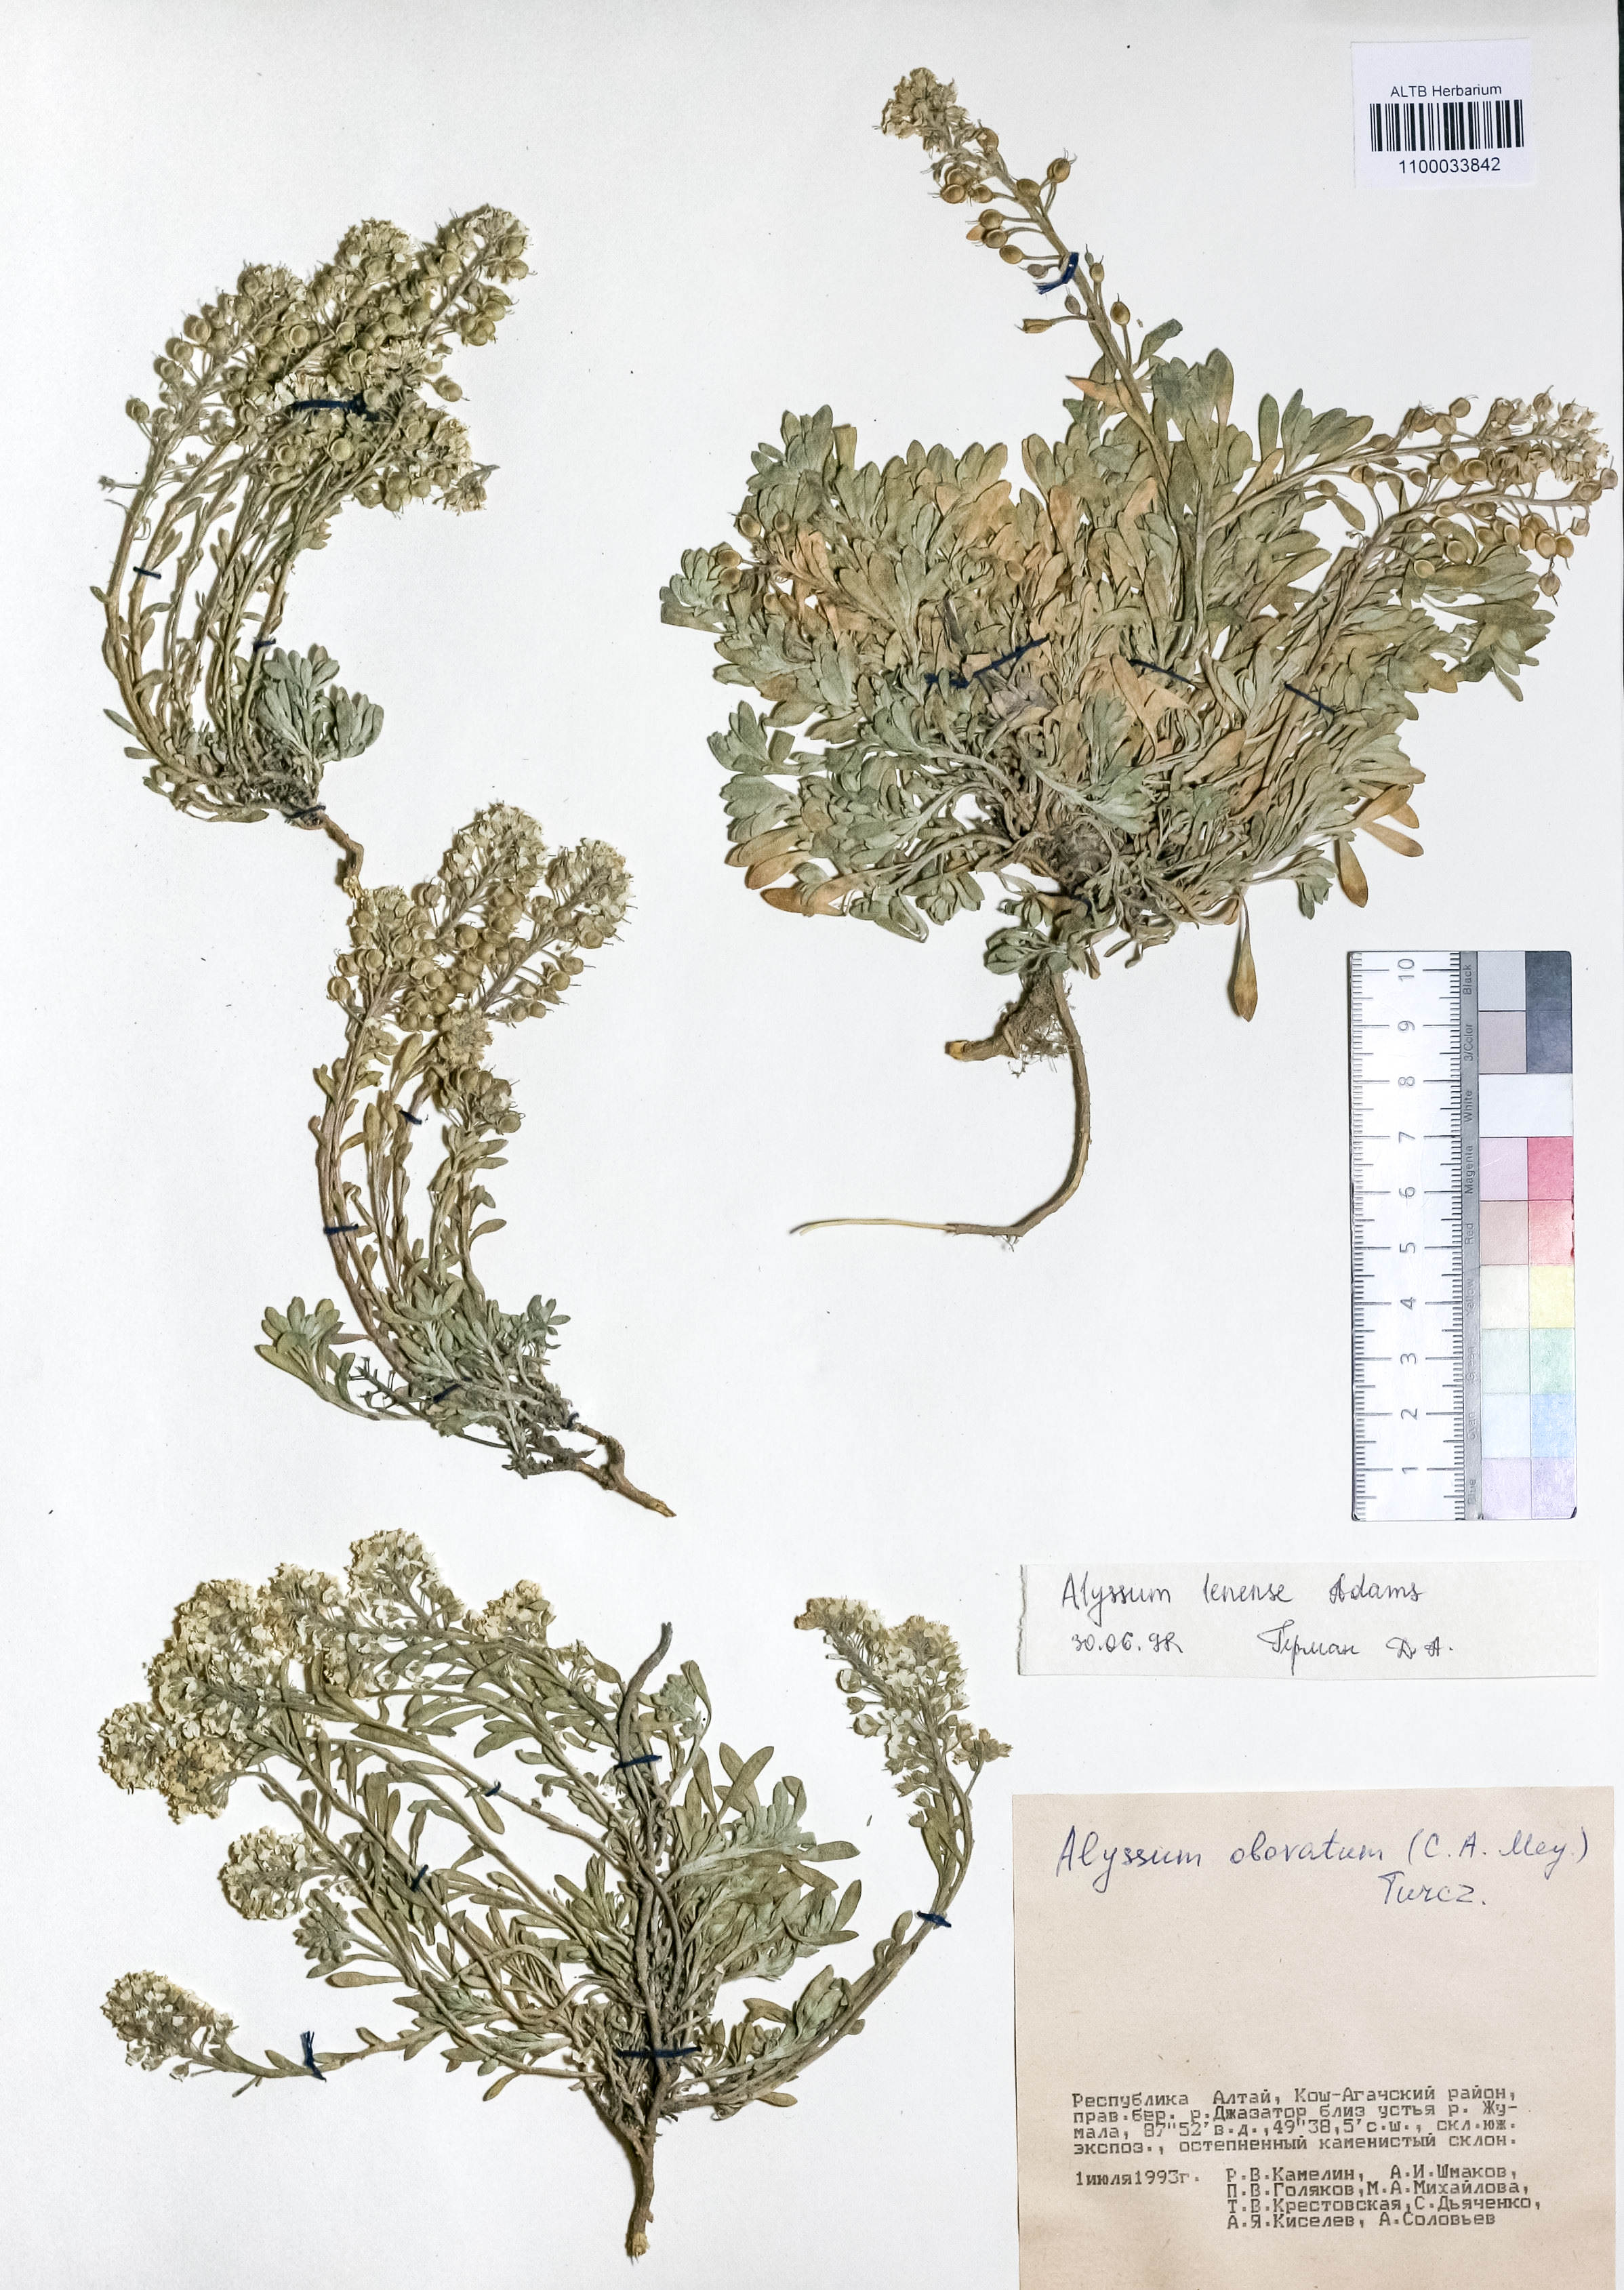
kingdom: Plantae
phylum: Tracheophyta
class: Magnoliopsida
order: Brassicales
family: Brassicaceae
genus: Alyssum
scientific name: Alyssum lenense
